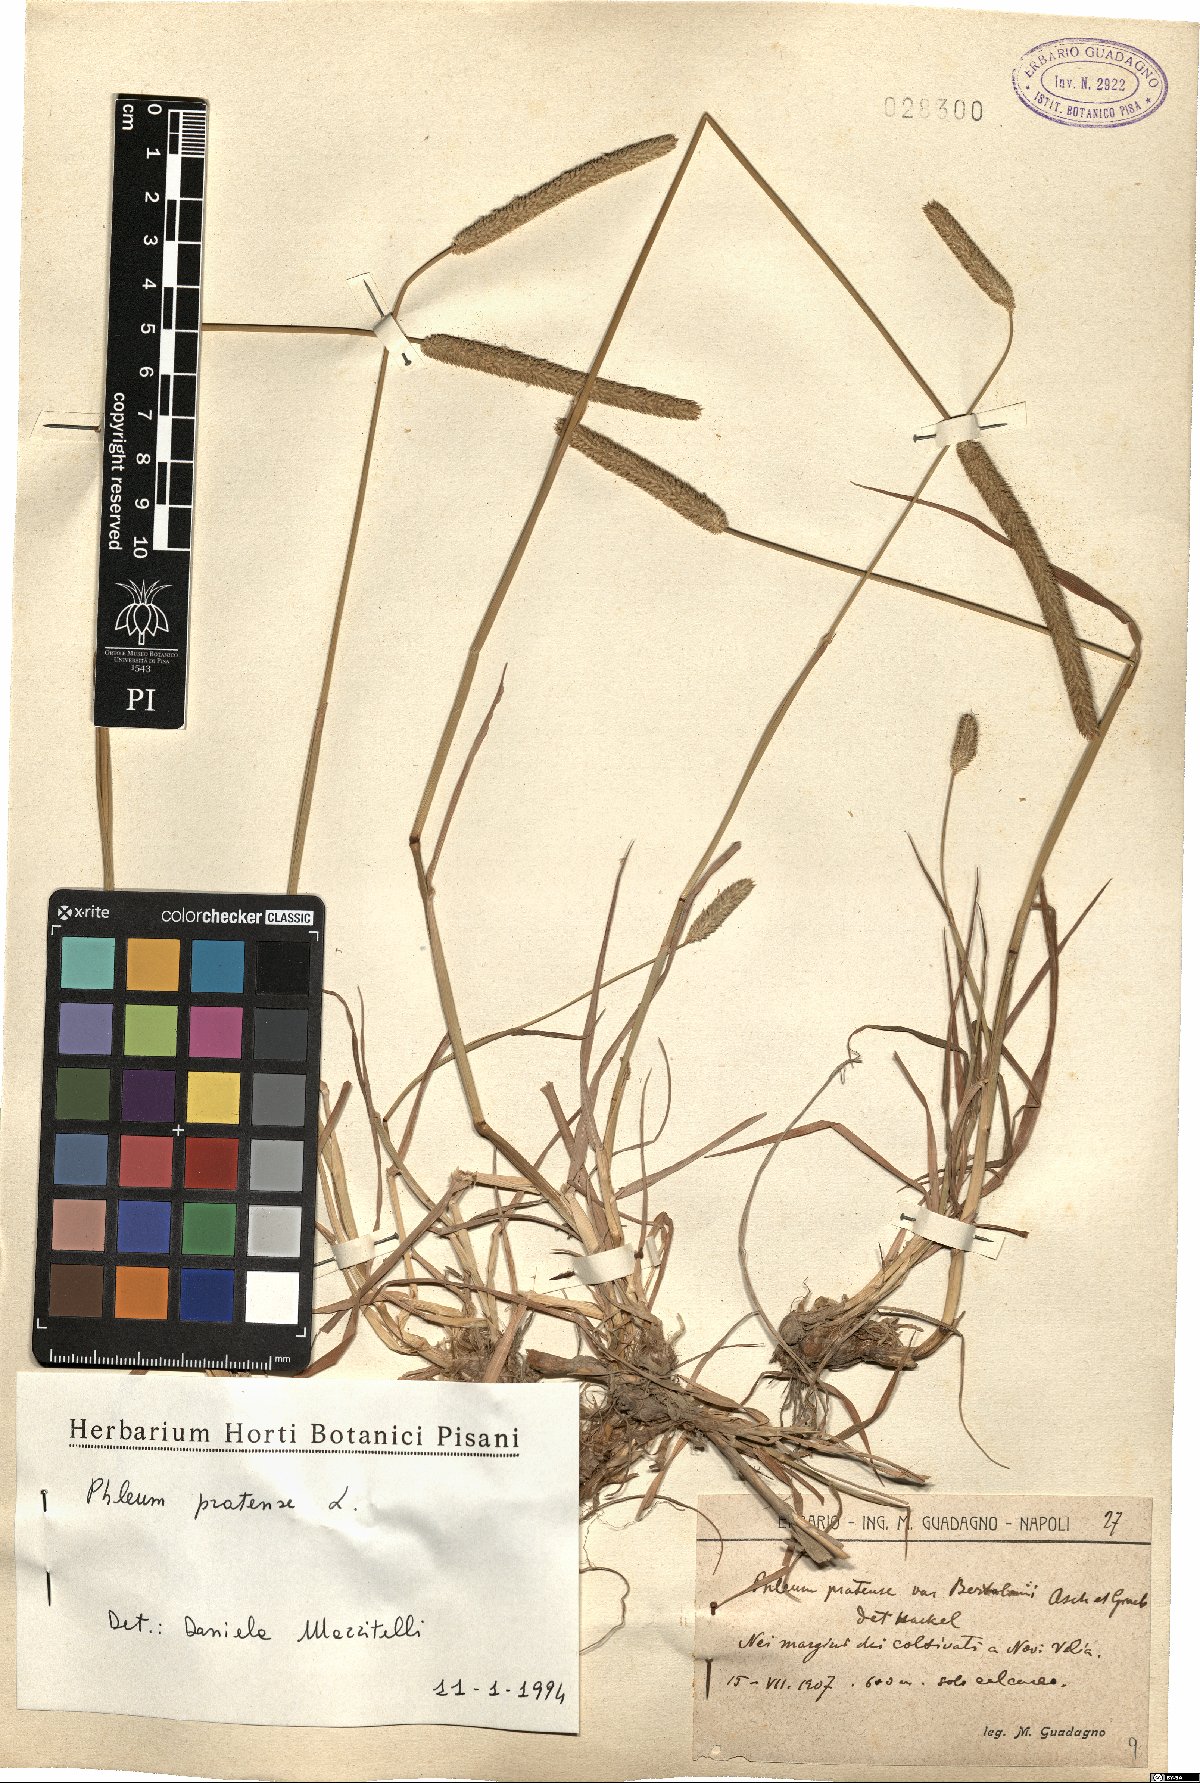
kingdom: Plantae
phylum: Tracheophyta
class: Liliopsida
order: Poales
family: Poaceae
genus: Phleum
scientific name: Phleum pratense
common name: Timothy grass
